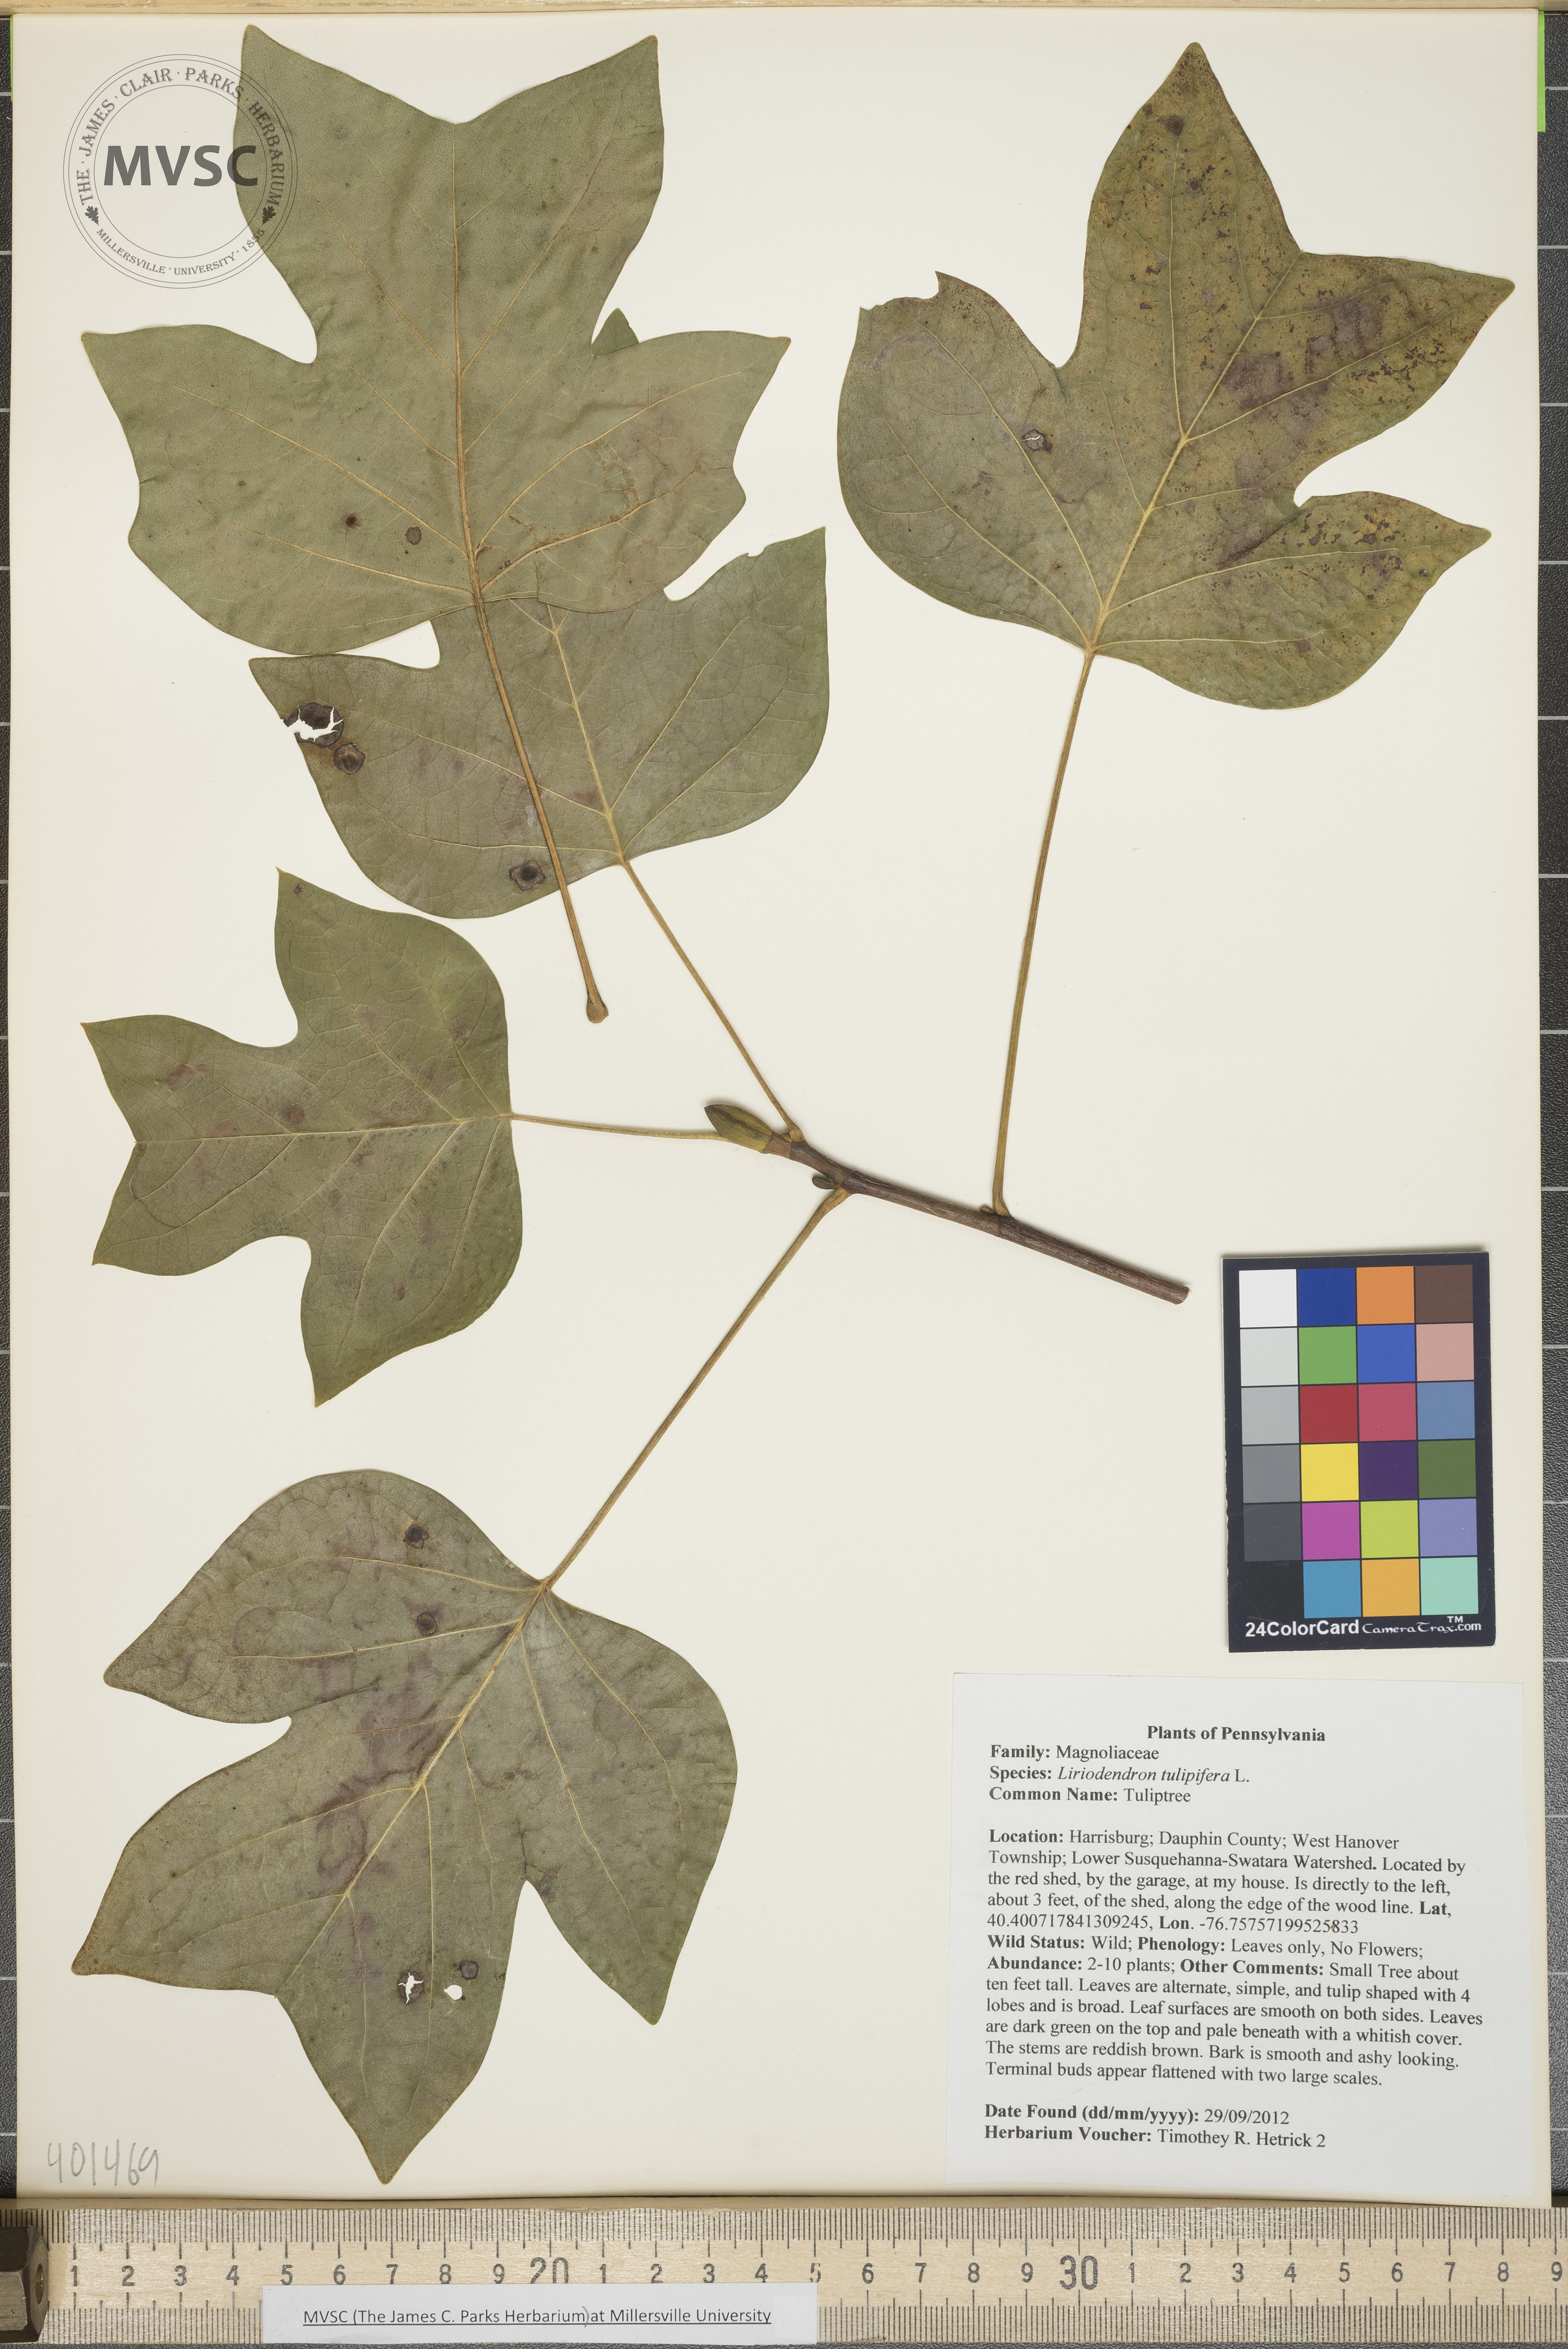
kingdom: Plantae
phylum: Tracheophyta
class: Magnoliopsida
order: Magnoliales
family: Magnoliaceae
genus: Liriodendron
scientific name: Liriodendron tulipifera
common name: Tuliptree
